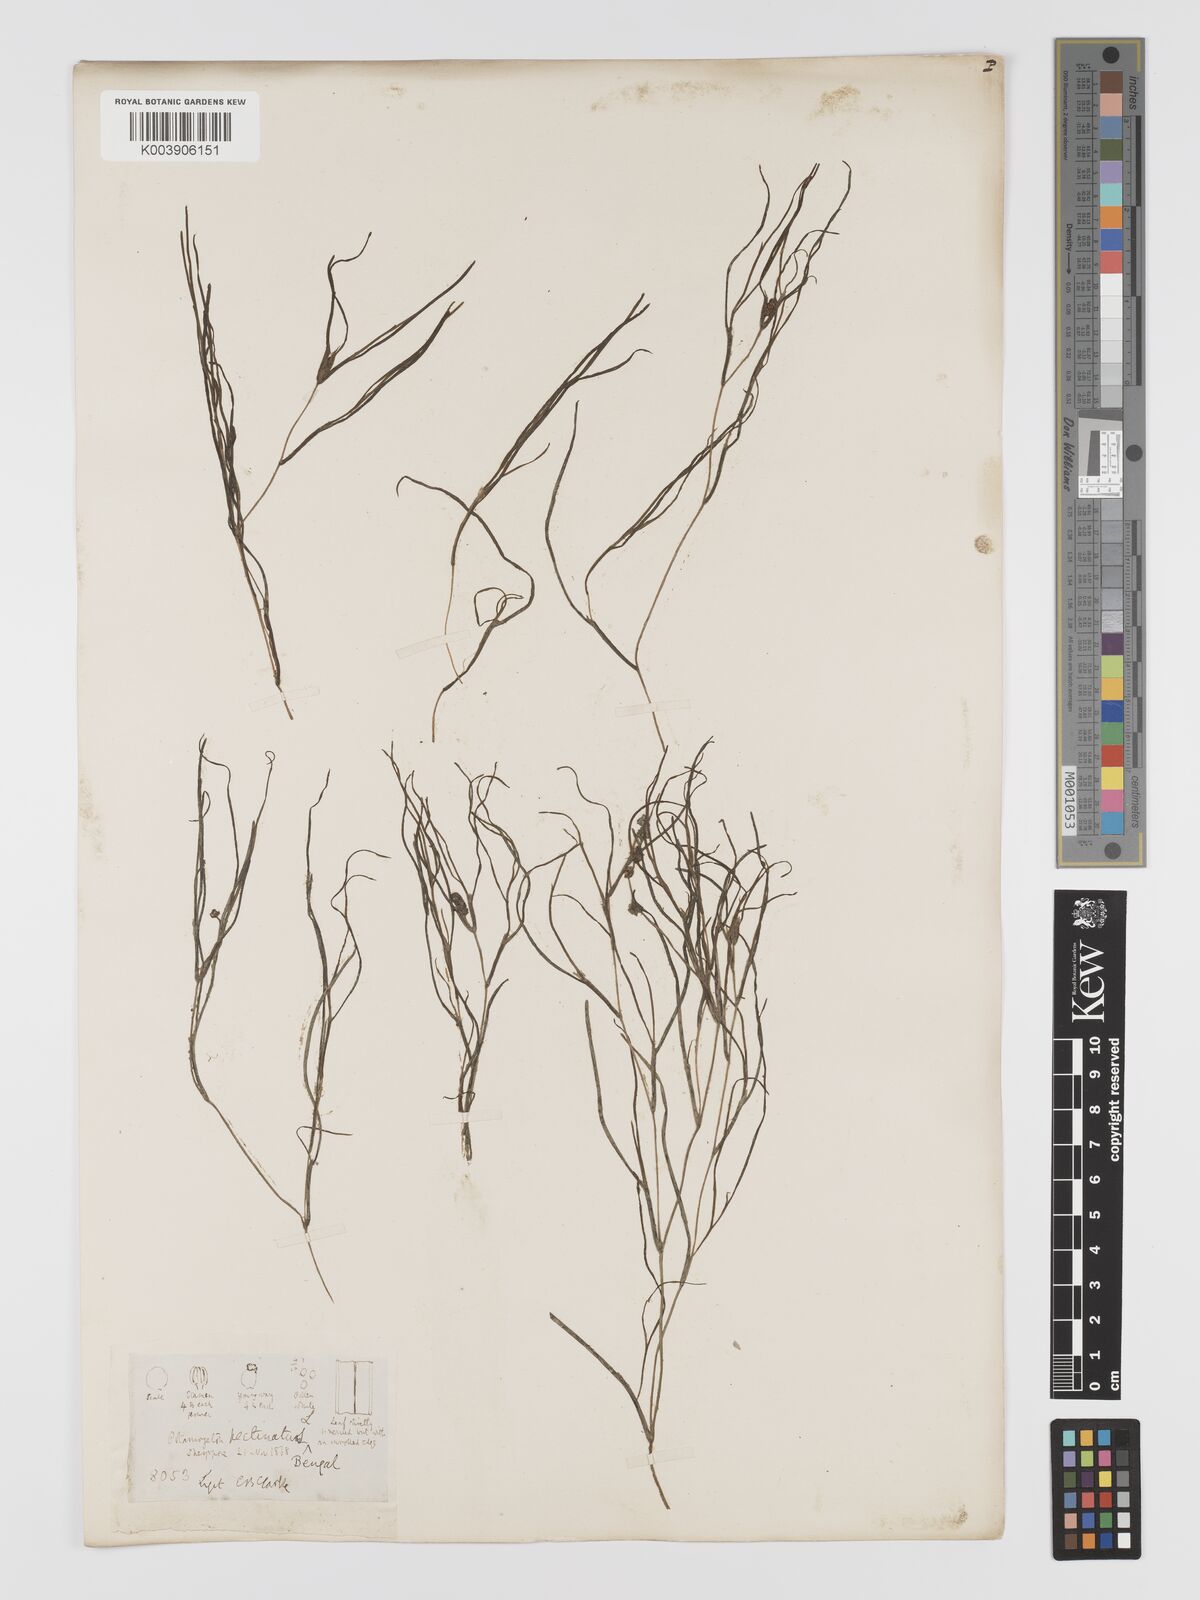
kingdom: Plantae
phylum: Tracheophyta
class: Liliopsida
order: Alismatales
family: Potamogetonaceae
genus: Stuckenia
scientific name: Stuckenia pectinata
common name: Sago pondweed
